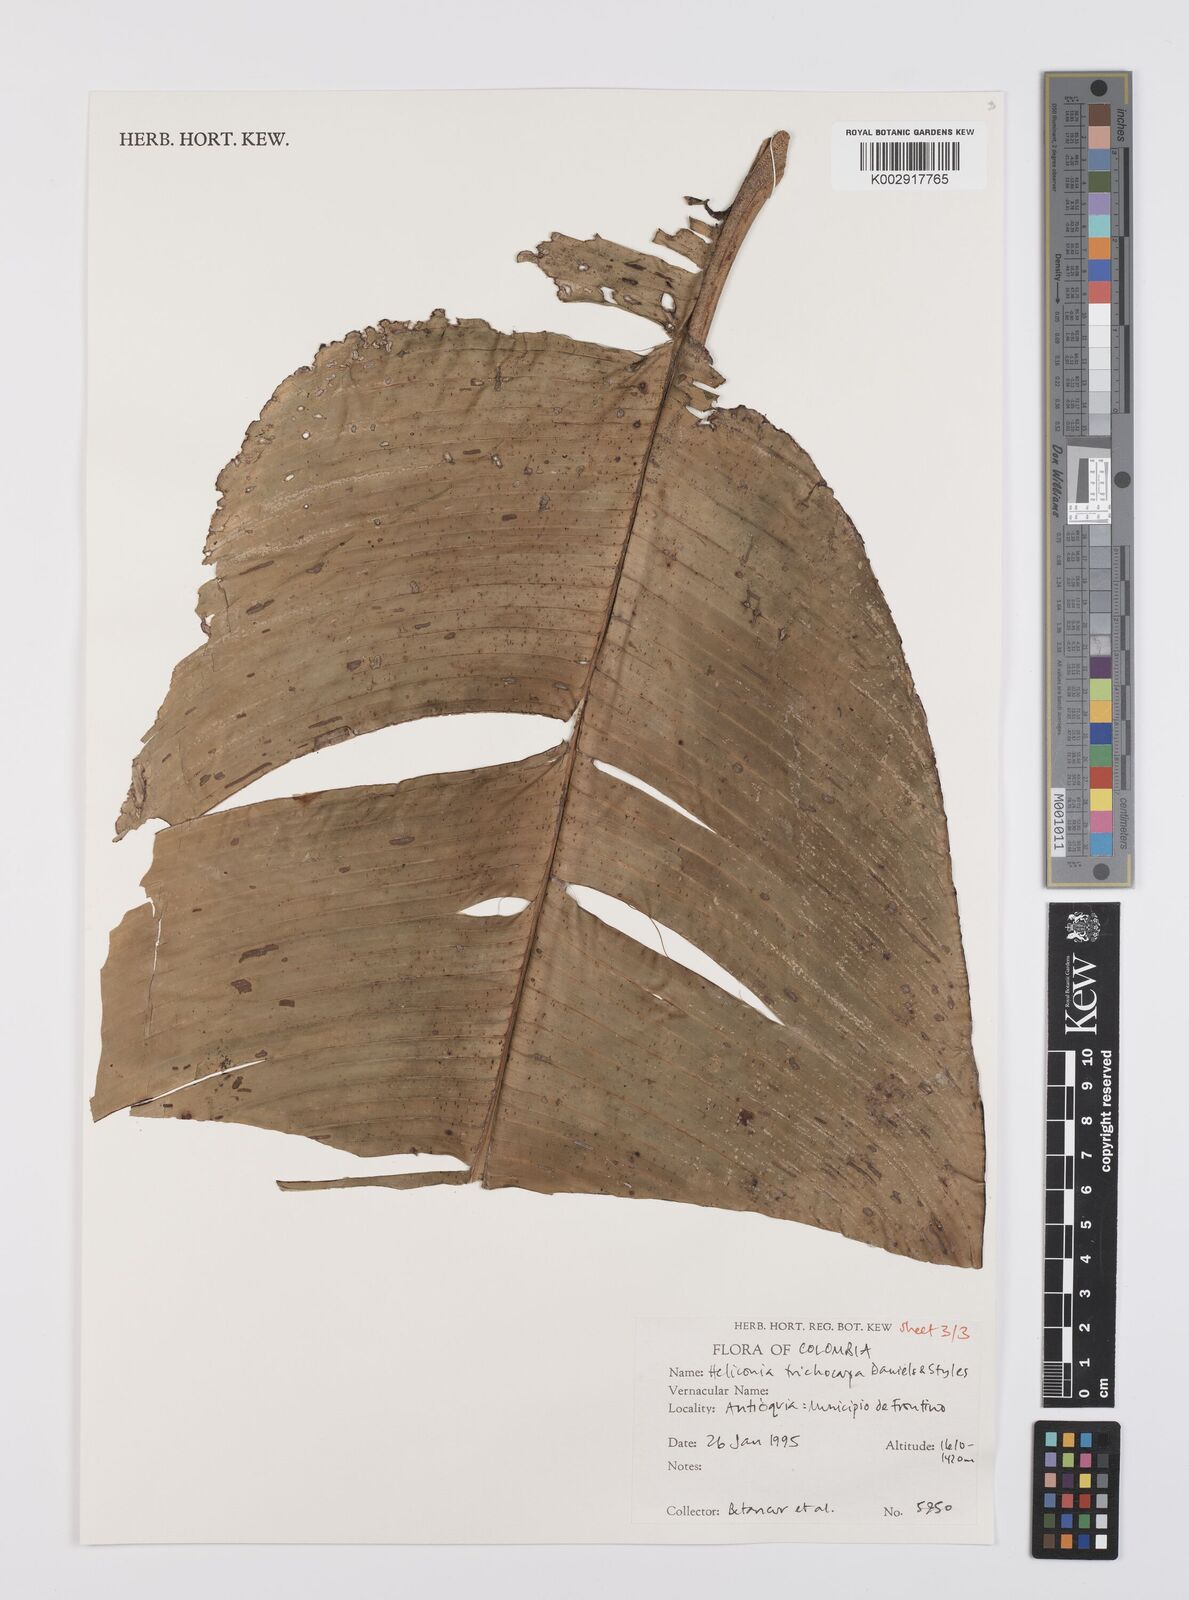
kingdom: Plantae
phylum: Tracheophyta
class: Liliopsida
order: Zingiberales
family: Heliconiaceae
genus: Heliconia
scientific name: Heliconia trichocarpa
